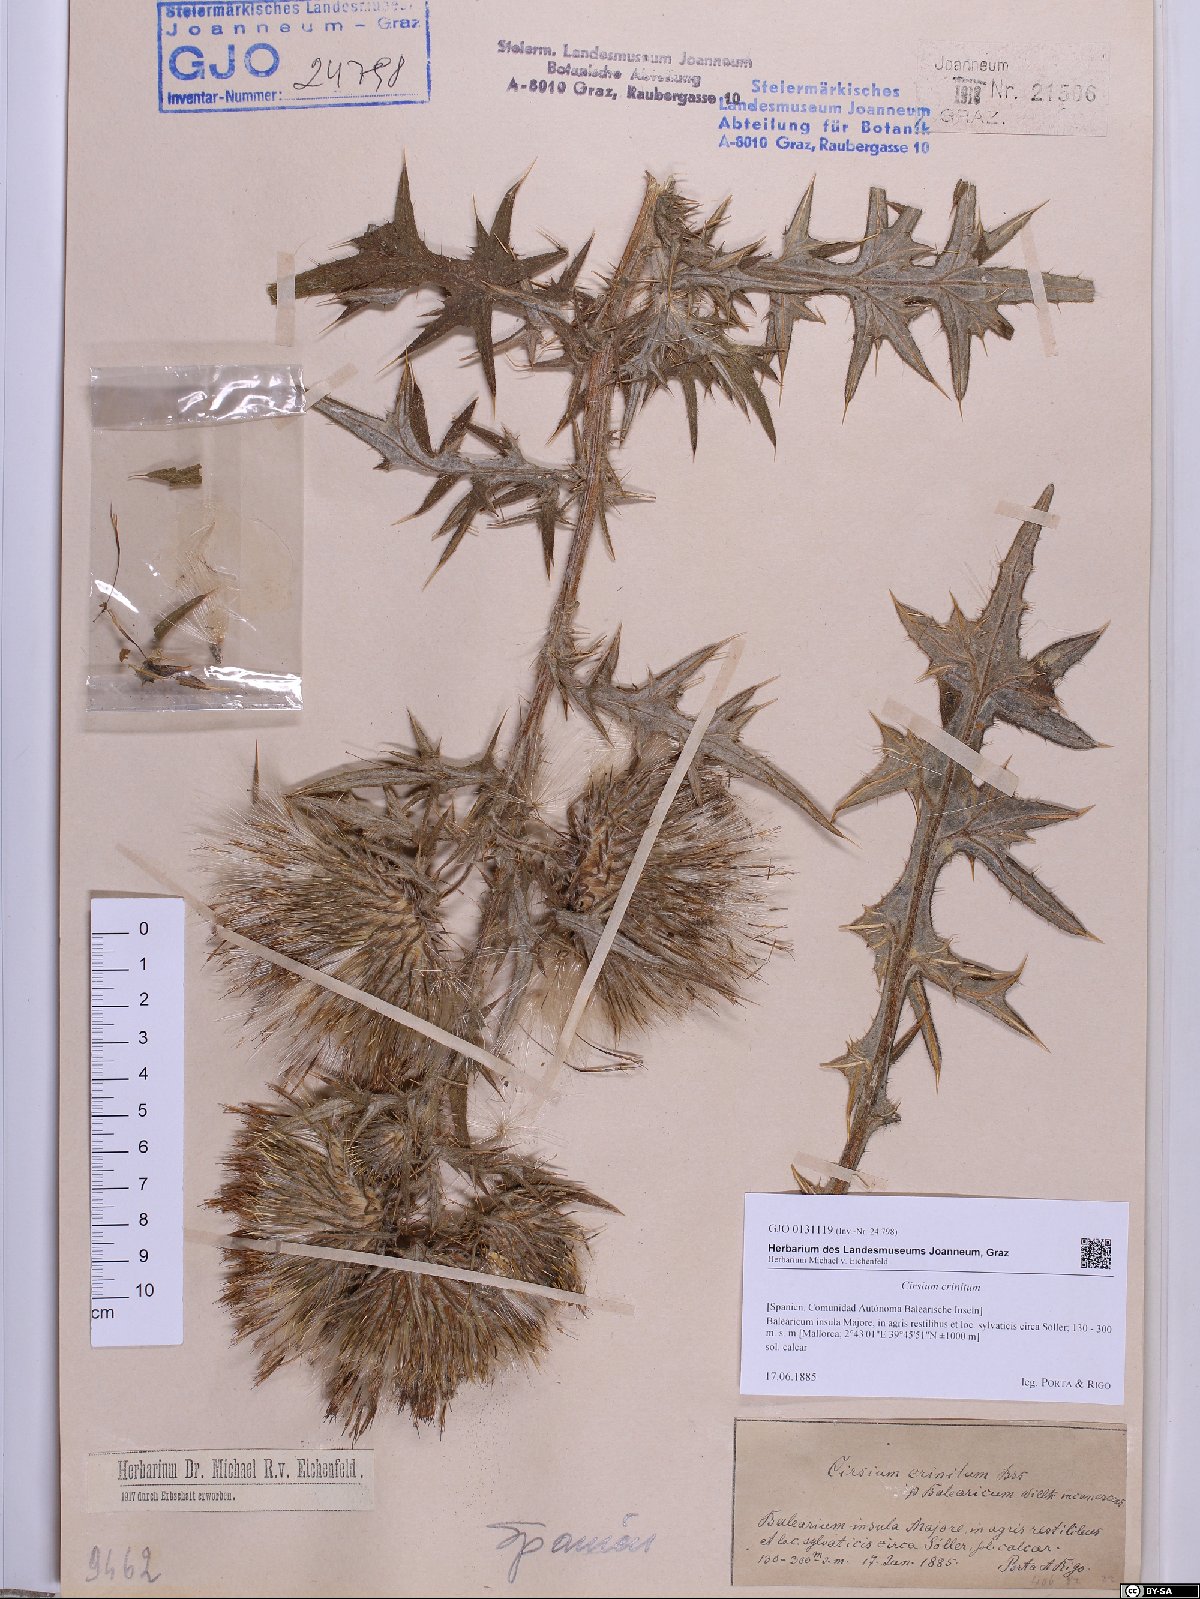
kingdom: Plantae
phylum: Tracheophyta
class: Magnoliopsida
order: Asterales
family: Asteraceae
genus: Cirsium
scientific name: Cirsium vulgare
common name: Bull thistle
